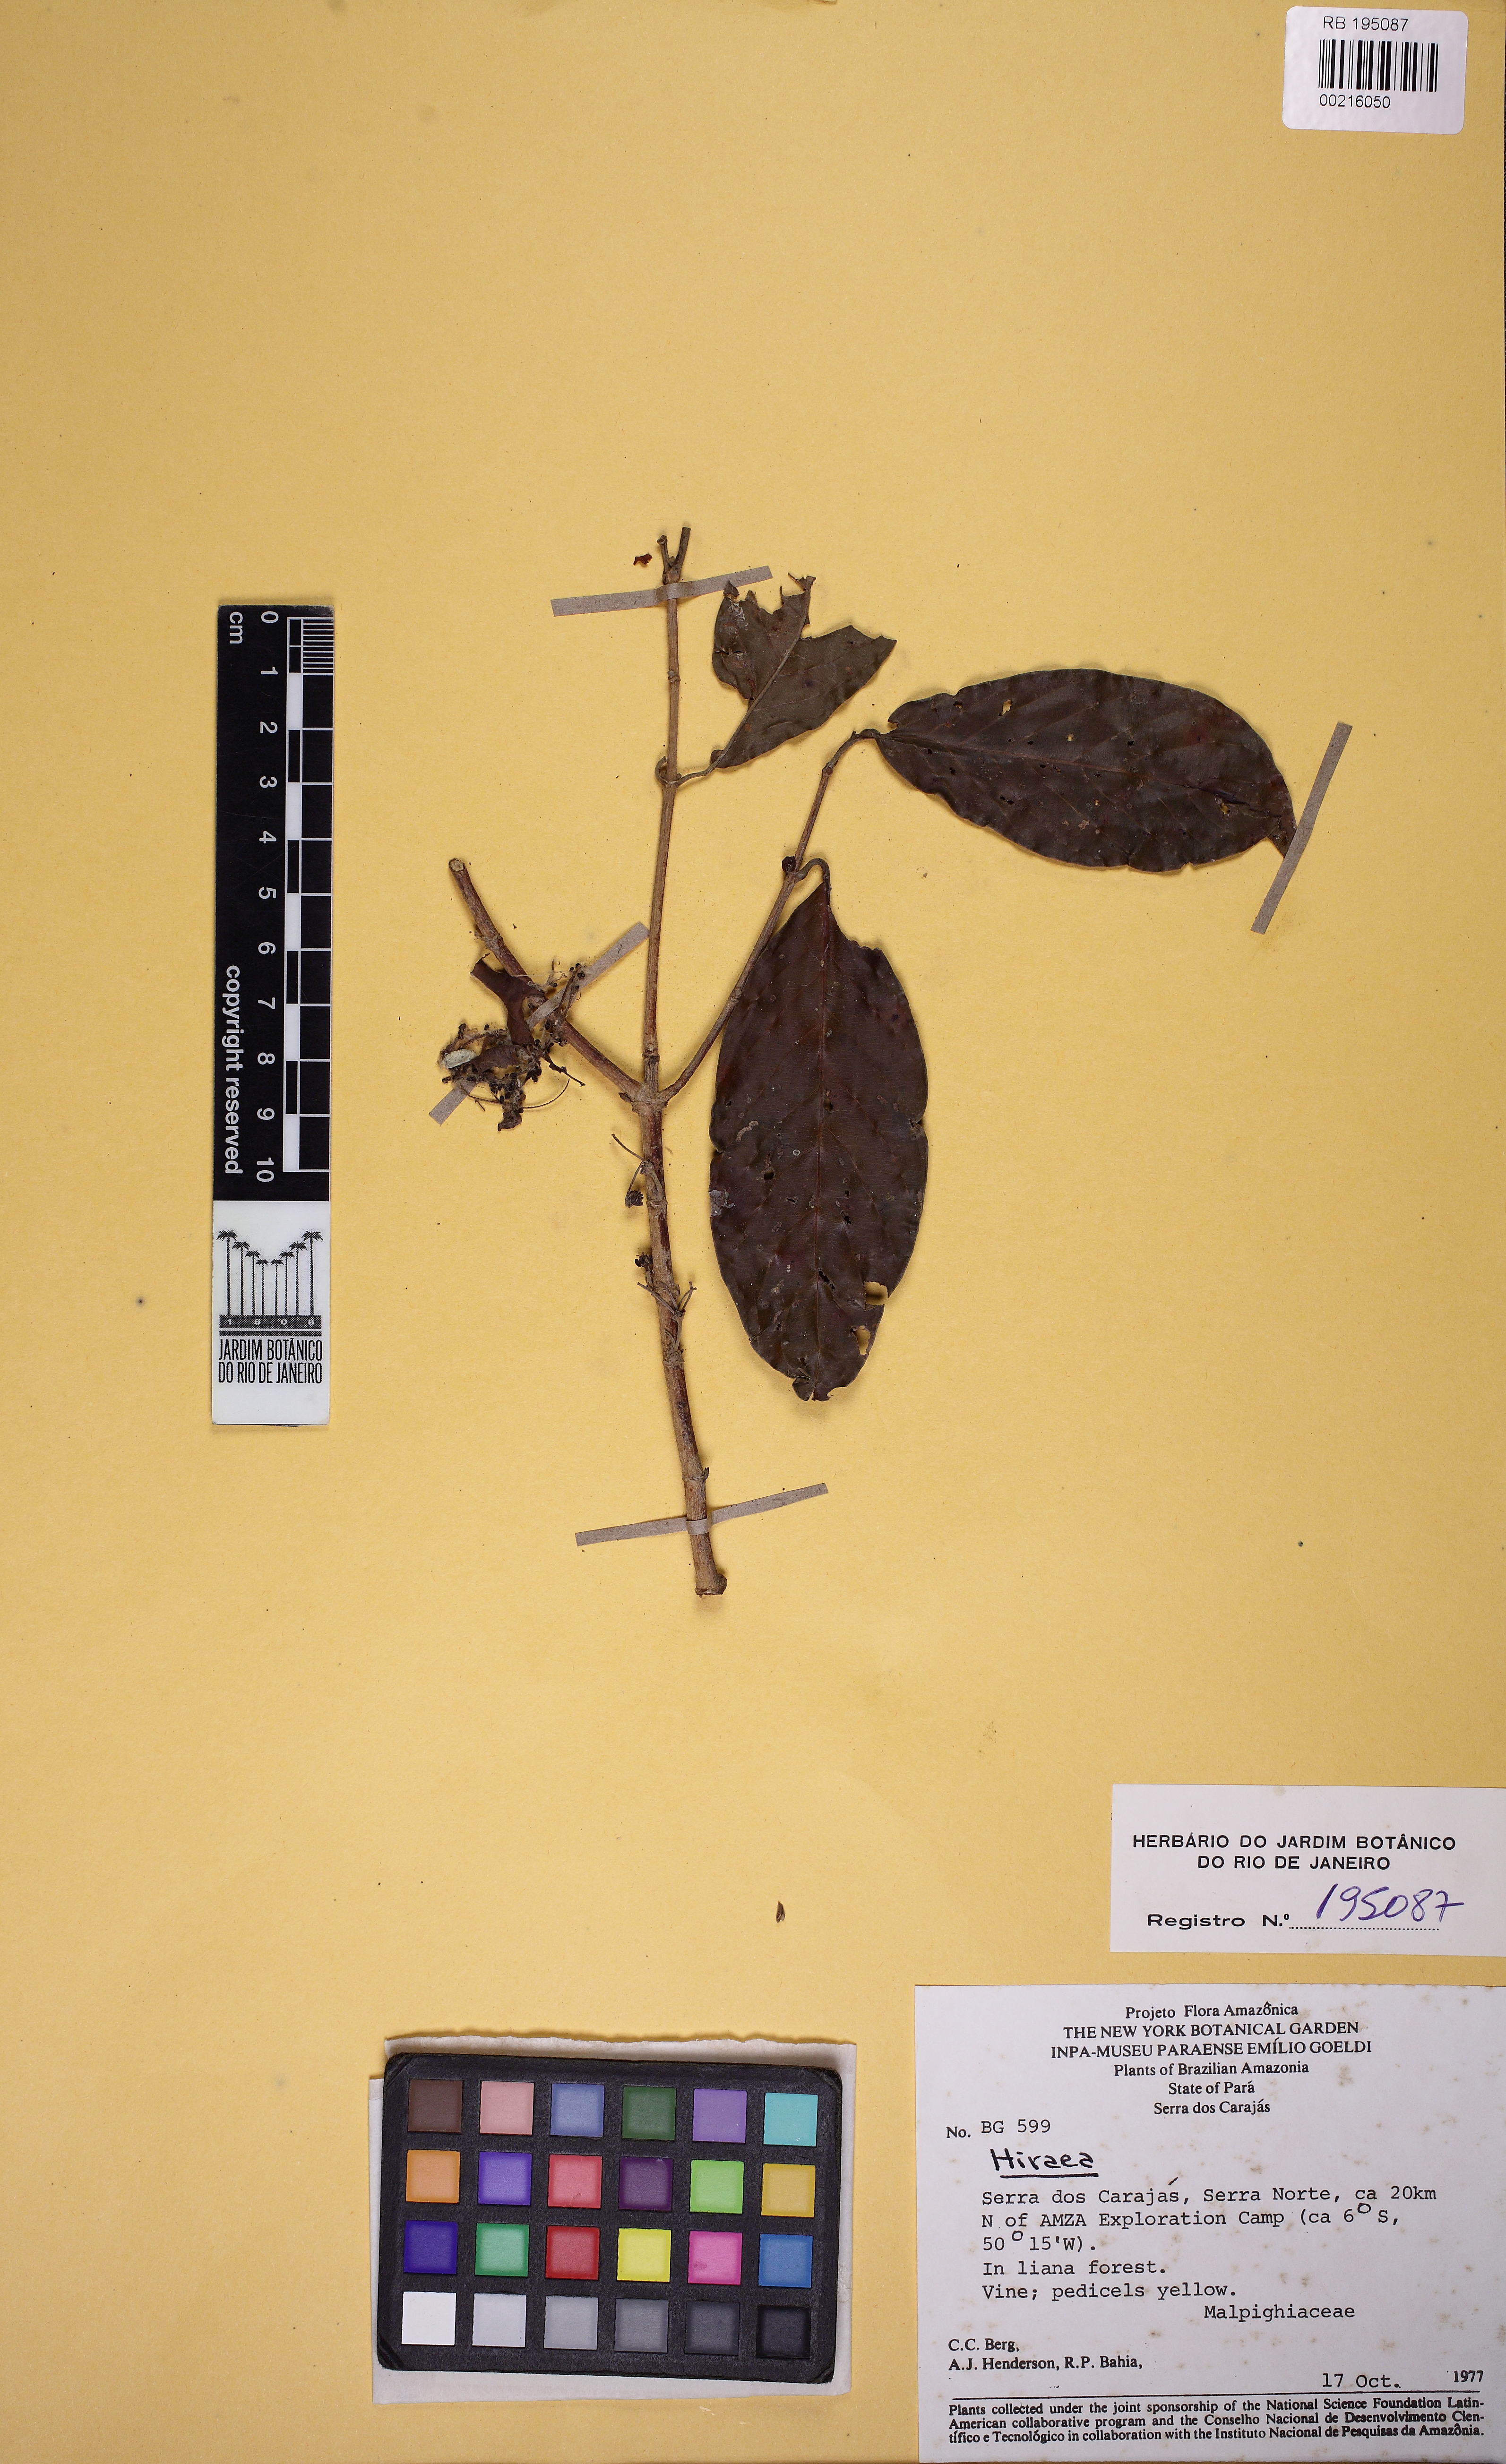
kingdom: Plantae
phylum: Tracheophyta
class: Magnoliopsida
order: Malpighiales
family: Malpighiaceae
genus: Hiraea
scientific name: Hiraea
